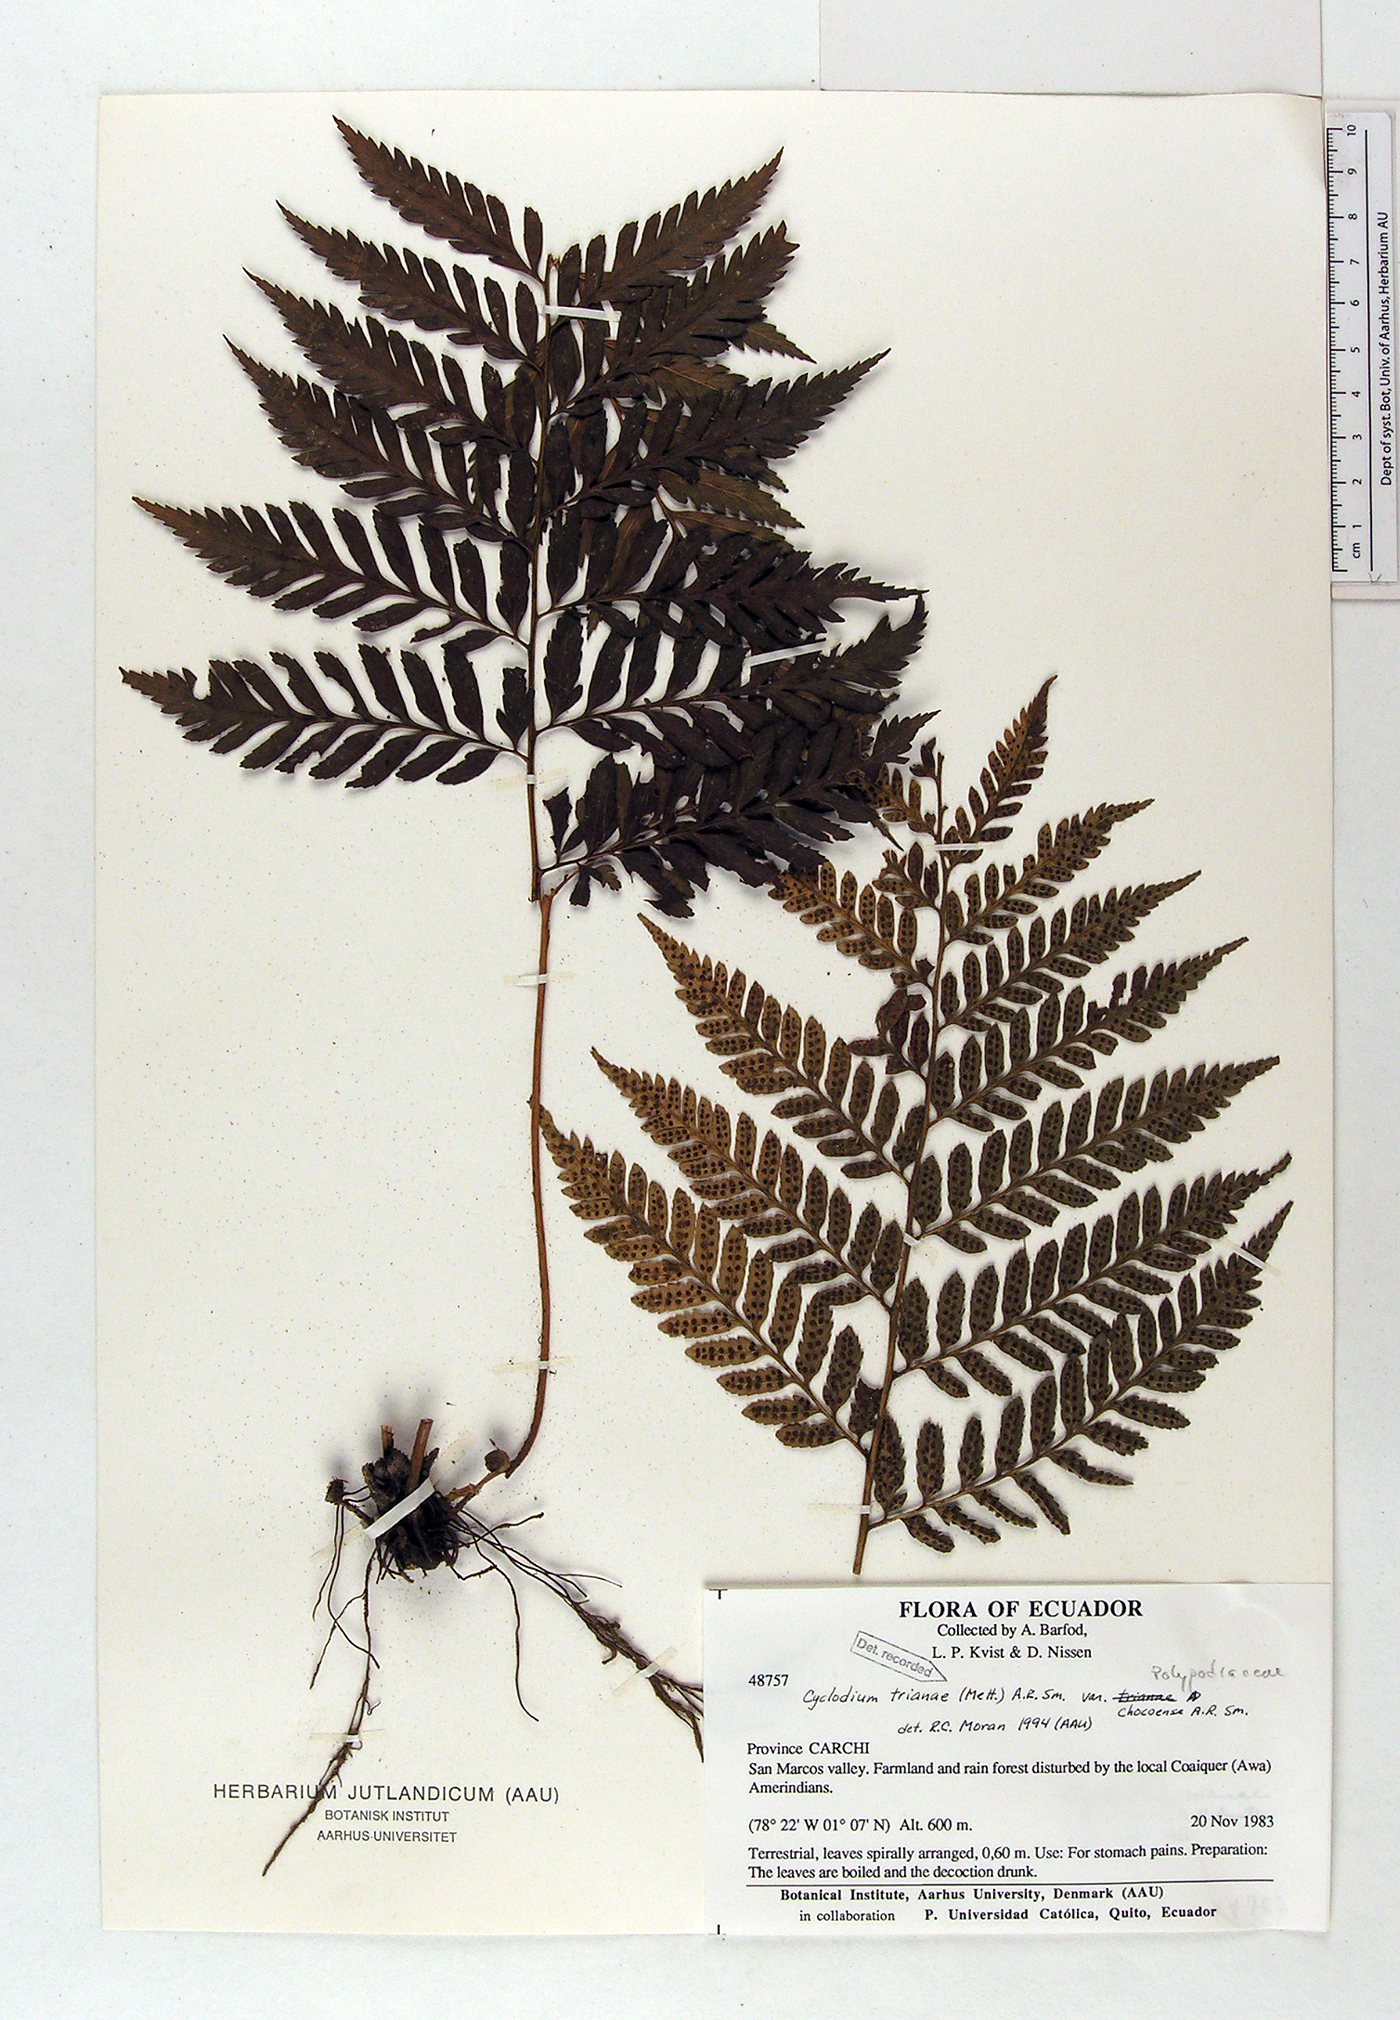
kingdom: Plantae
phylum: Tracheophyta
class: Polypodiopsida
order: Polypodiales
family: Dryopteridaceae
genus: Cyclodium
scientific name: Cyclodium trianae
